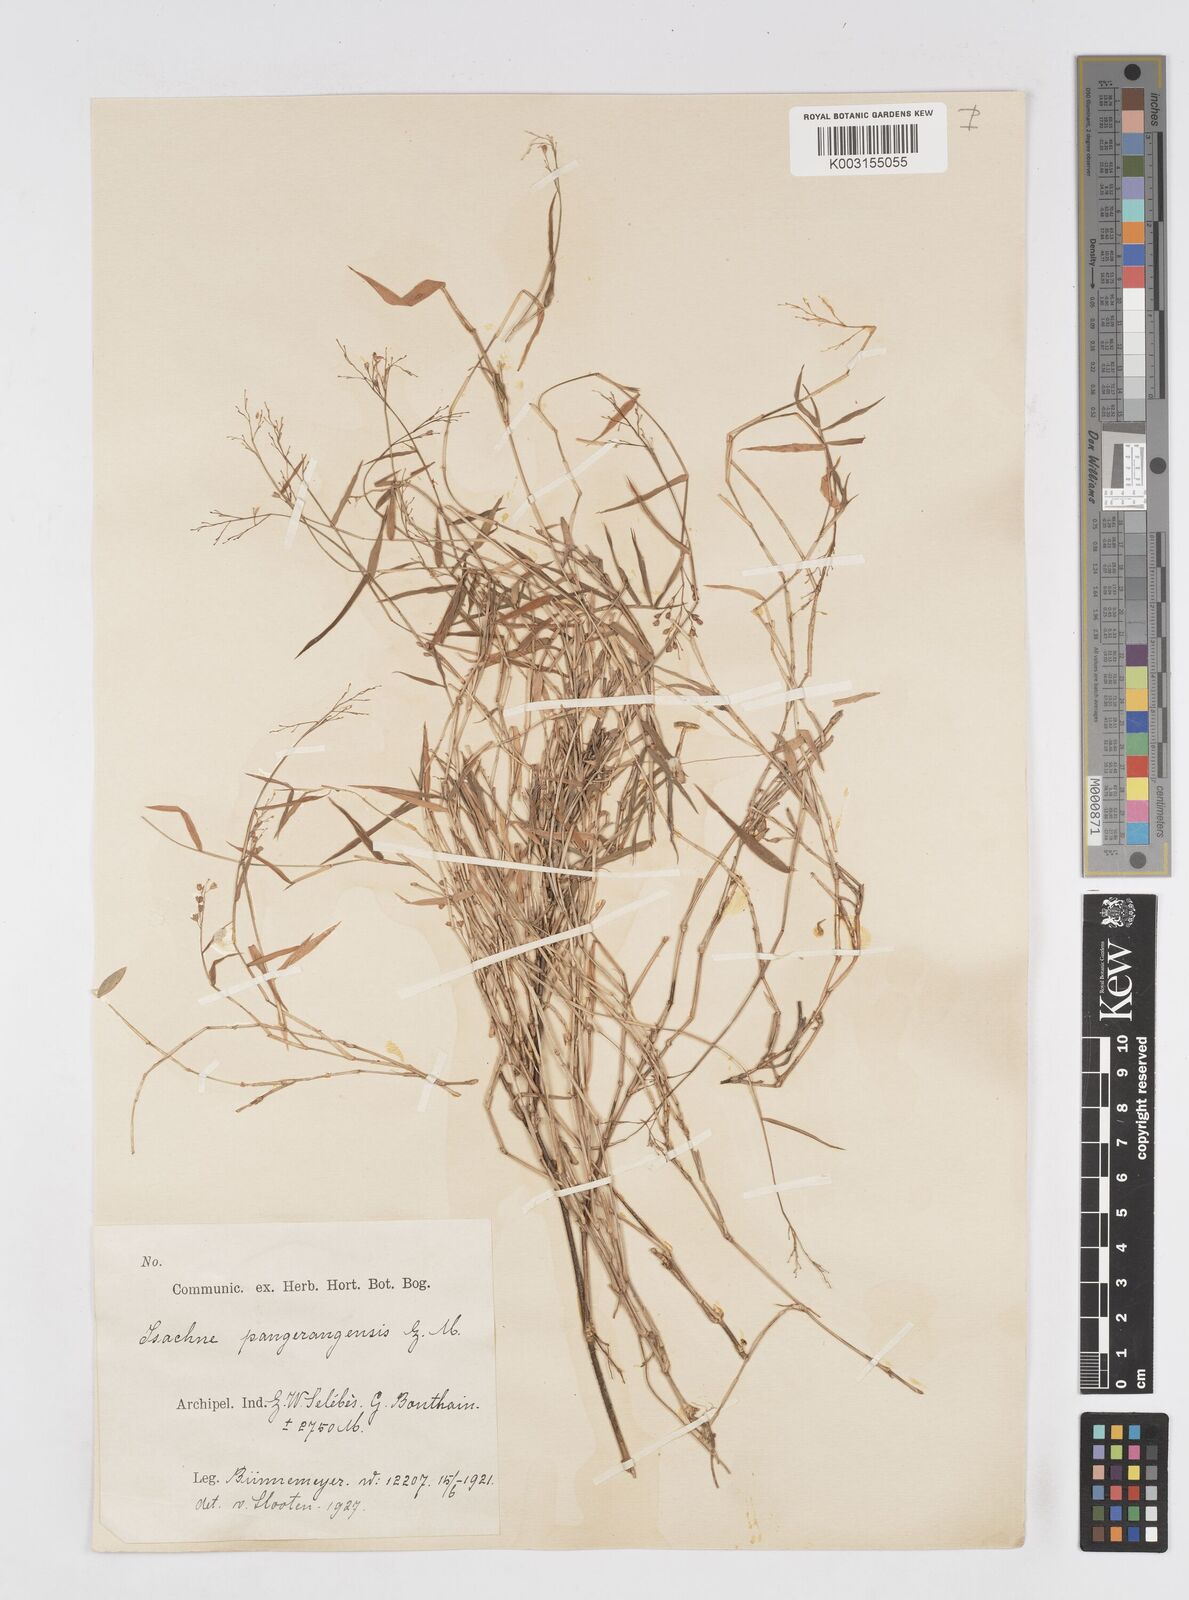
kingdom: Plantae
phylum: Tracheophyta
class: Liliopsida
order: Poales
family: Poaceae
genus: Isachne
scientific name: Isachne pangerangensis
